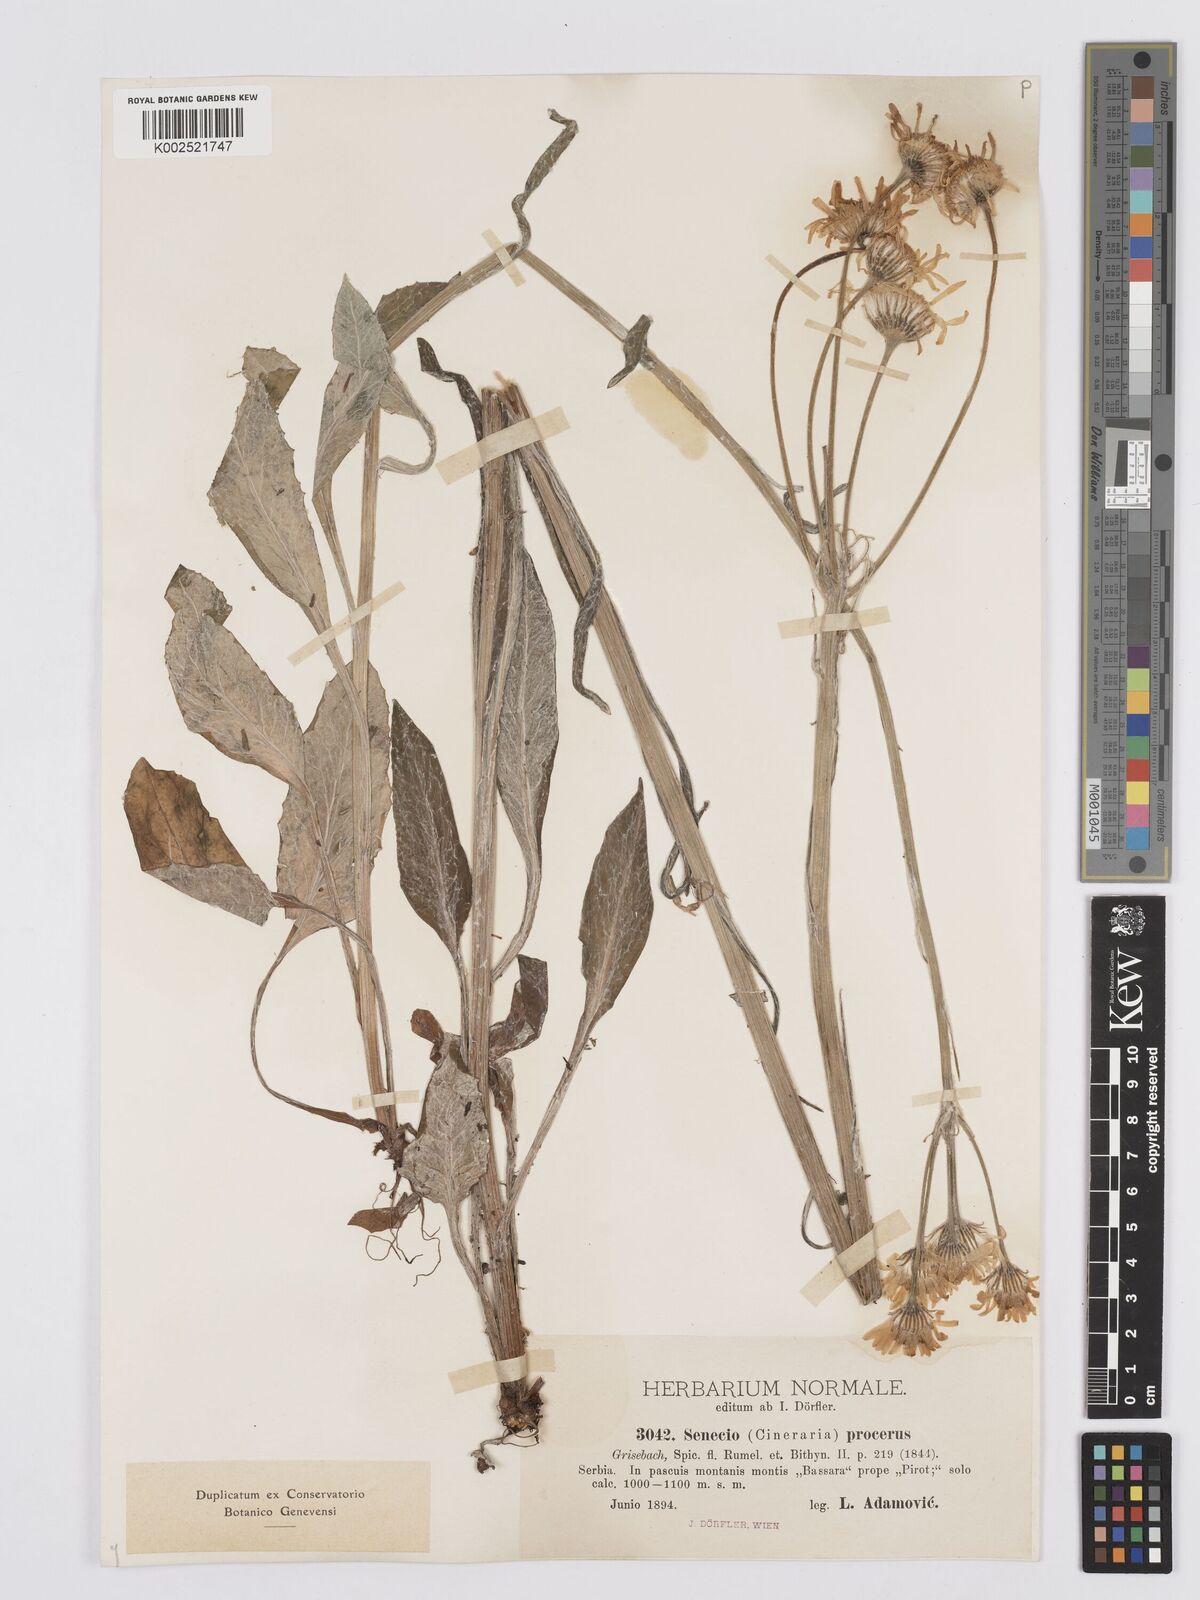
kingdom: Plantae
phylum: Tracheophyta
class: Magnoliopsida
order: Asterales
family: Asteraceae
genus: Tephroseris
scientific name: Tephroseris papposa
